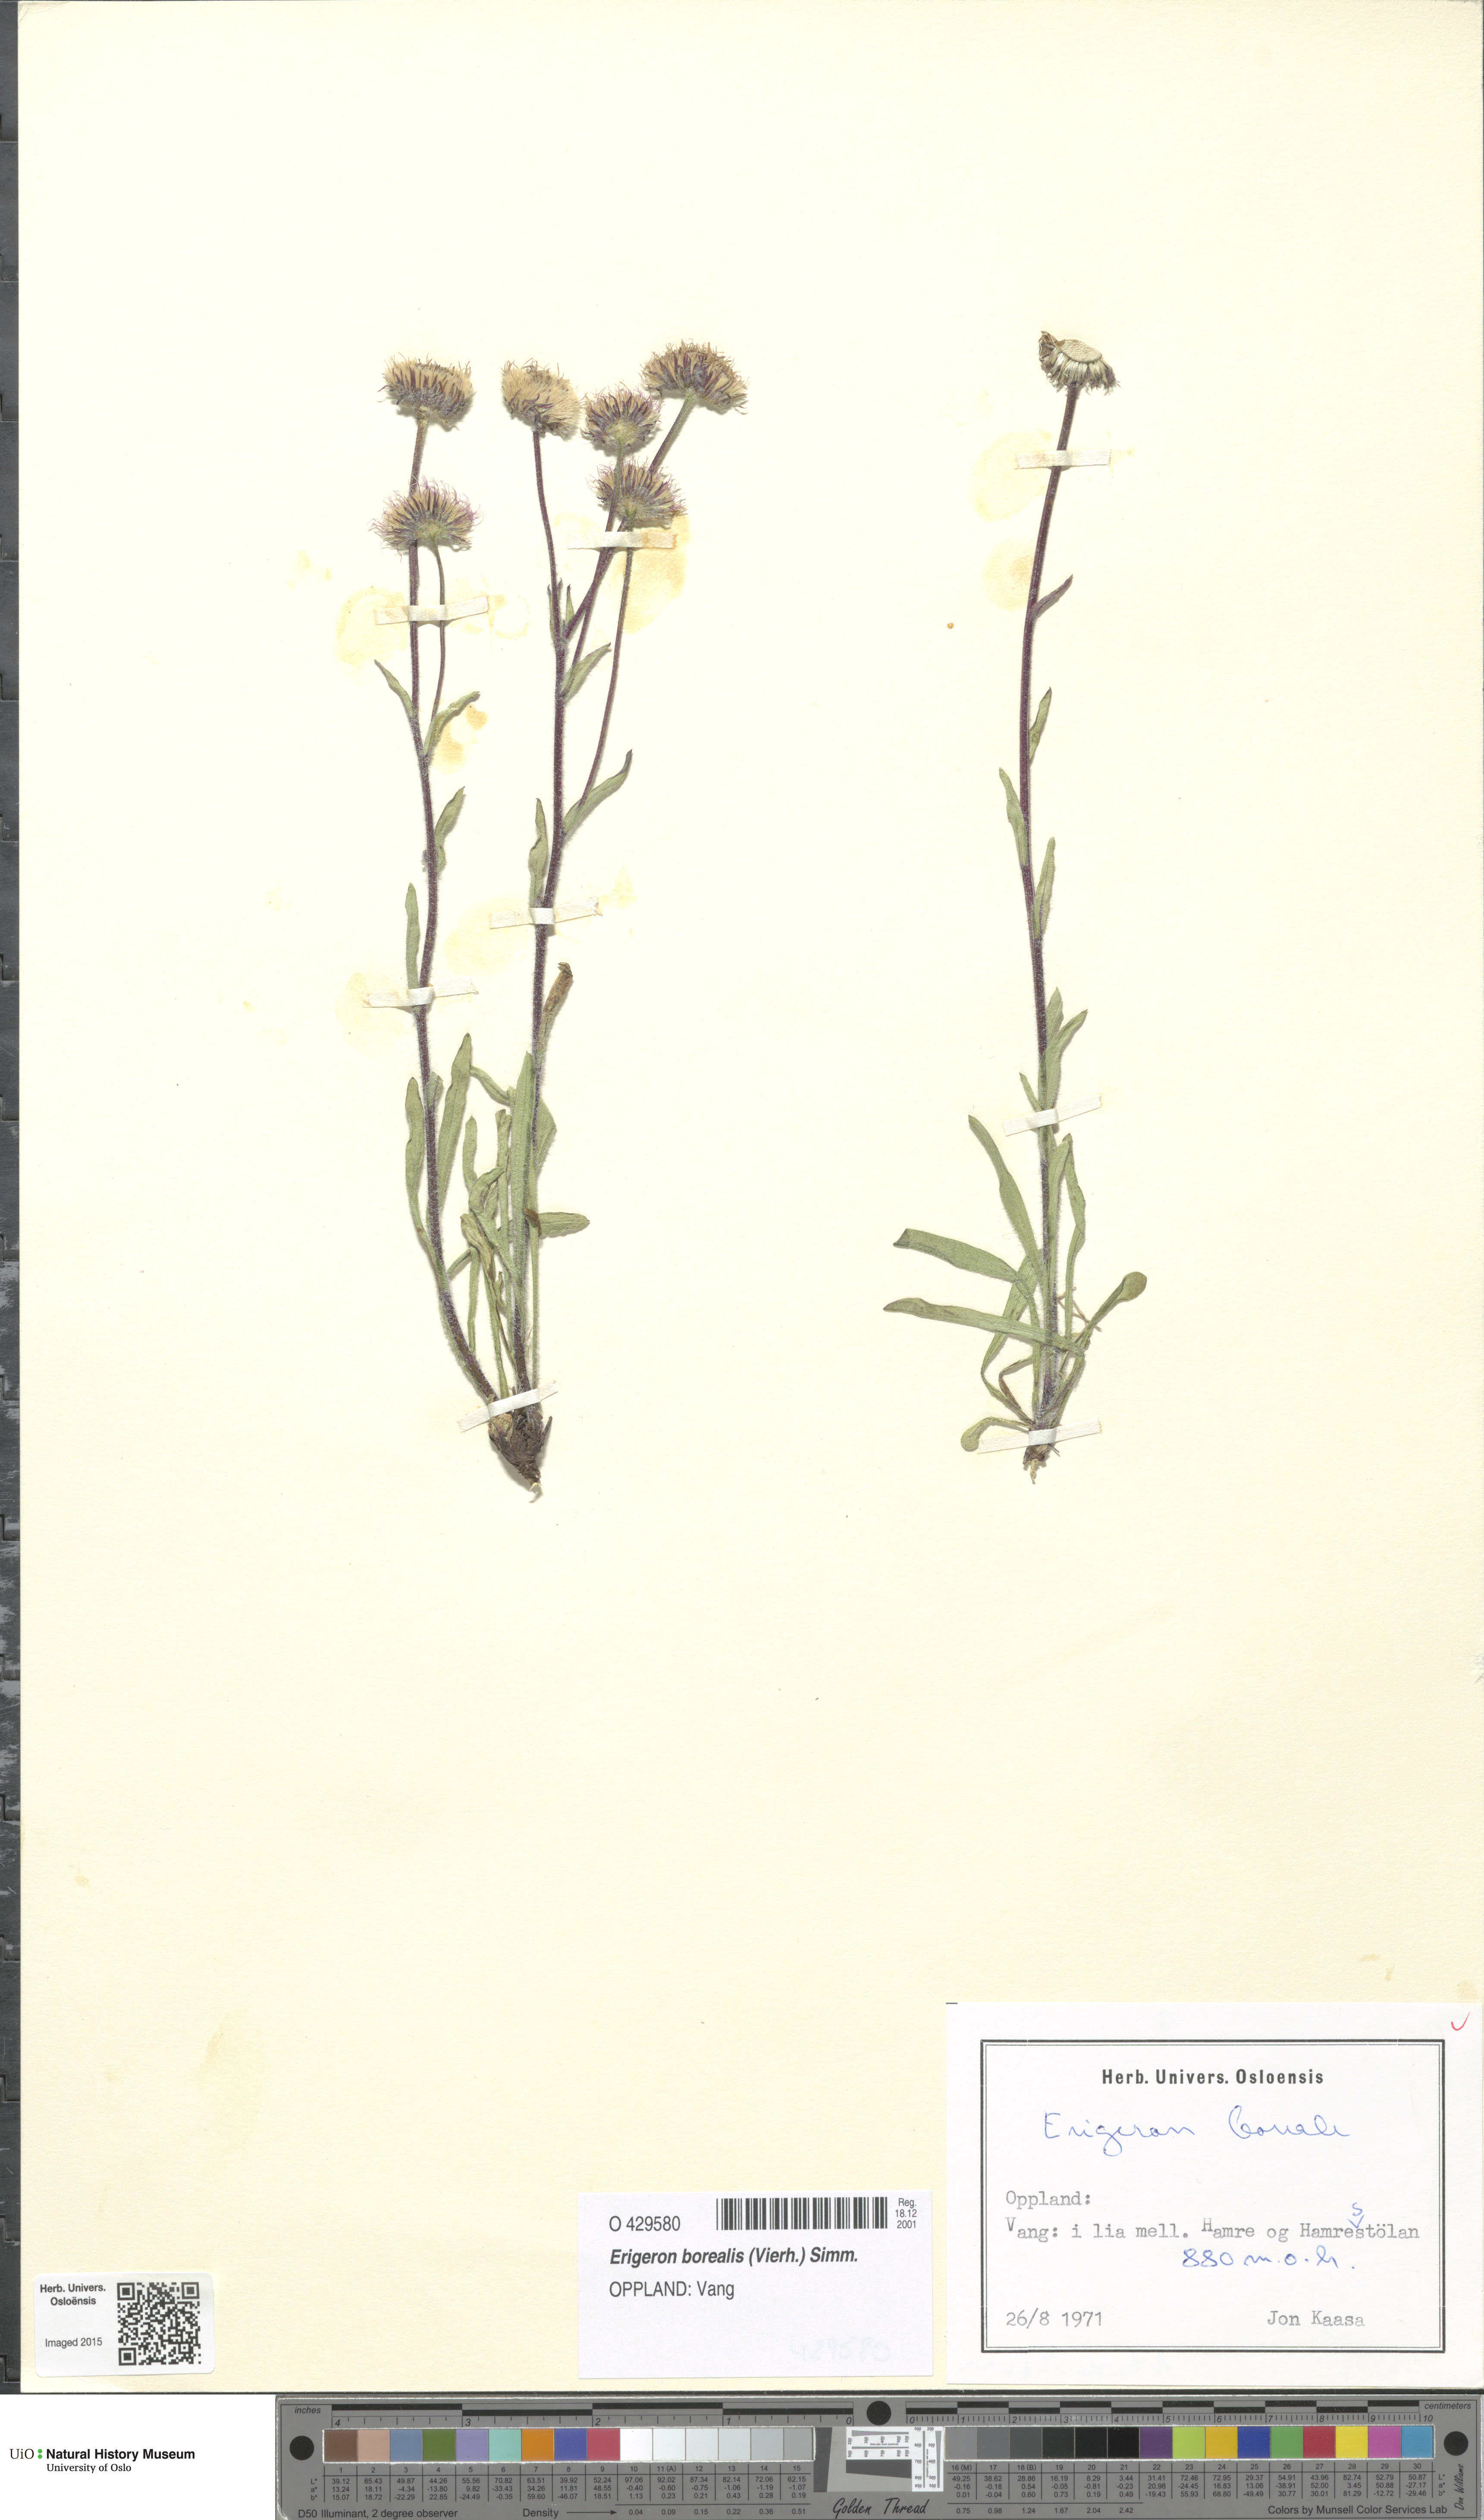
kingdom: Plantae
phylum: Tracheophyta
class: Magnoliopsida
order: Asterales
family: Asteraceae
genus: Erigeron
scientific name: Erigeron borealis
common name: Alpine fleabane
